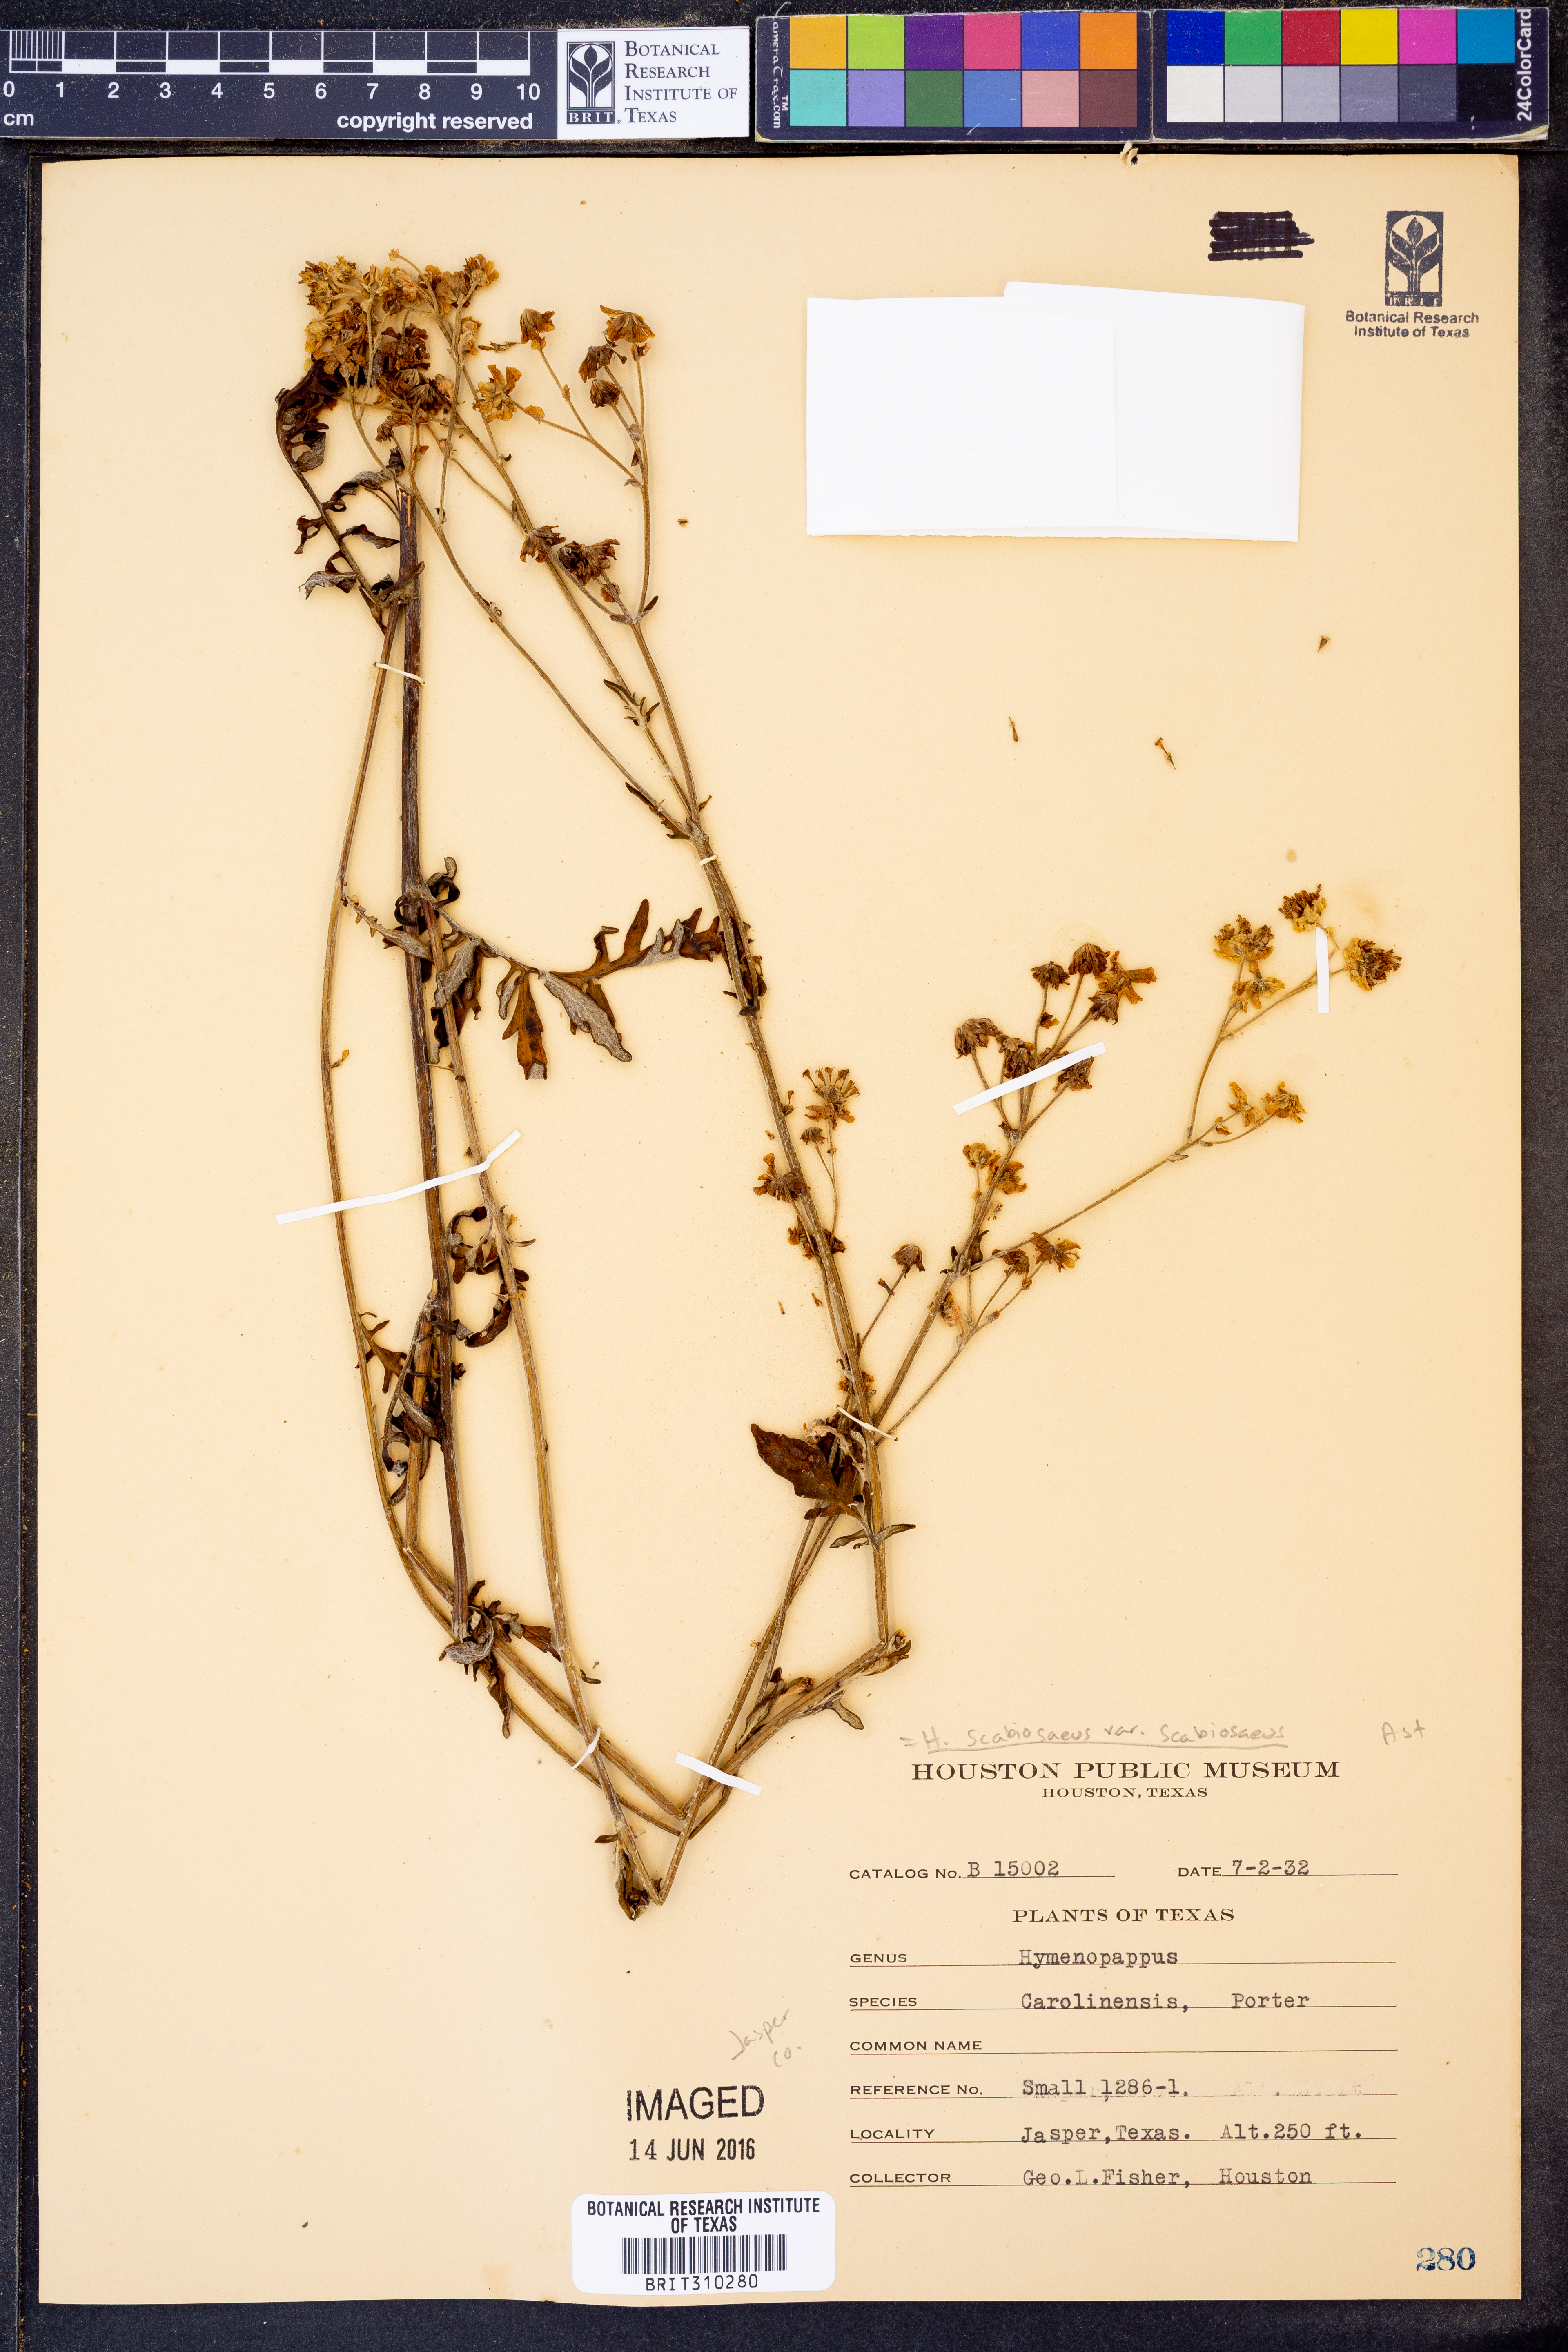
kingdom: Plantae
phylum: Tracheophyta
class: Magnoliopsida
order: Asterales
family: Asteraceae
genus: Hymenopappus
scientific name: Hymenopappus scabiosaeus
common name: Carolina woollywhite
